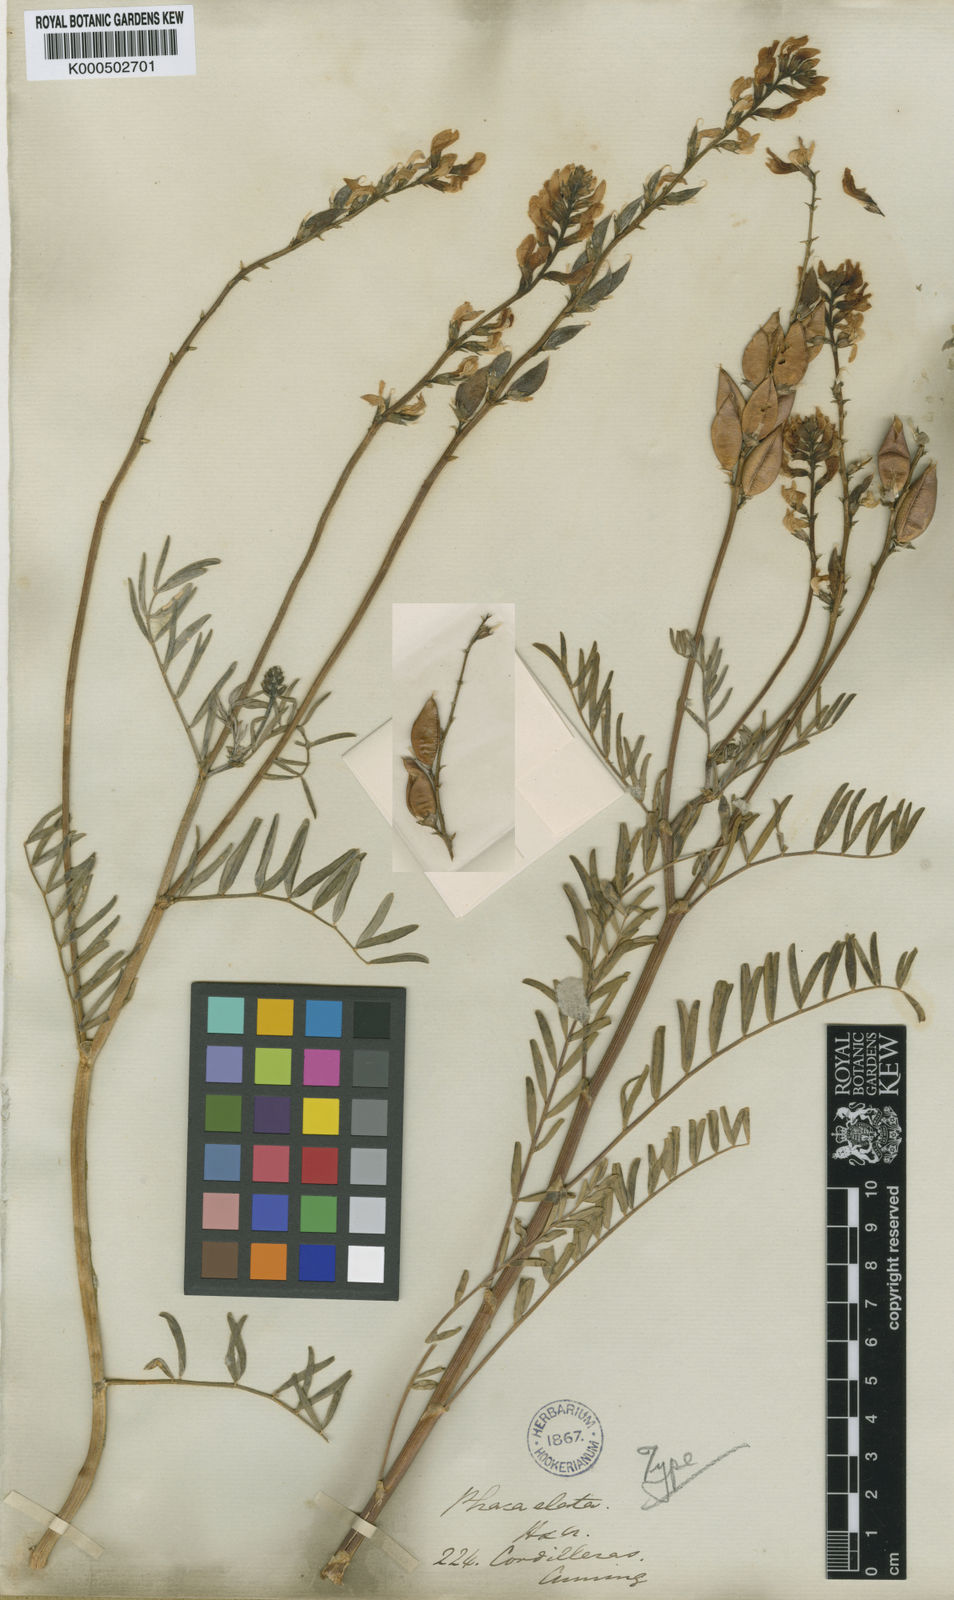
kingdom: Plantae
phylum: Tracheophyta
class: Magnoliopsida
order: Fabales
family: Fabaceae
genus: Astragalus
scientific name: Astragalus elatus
